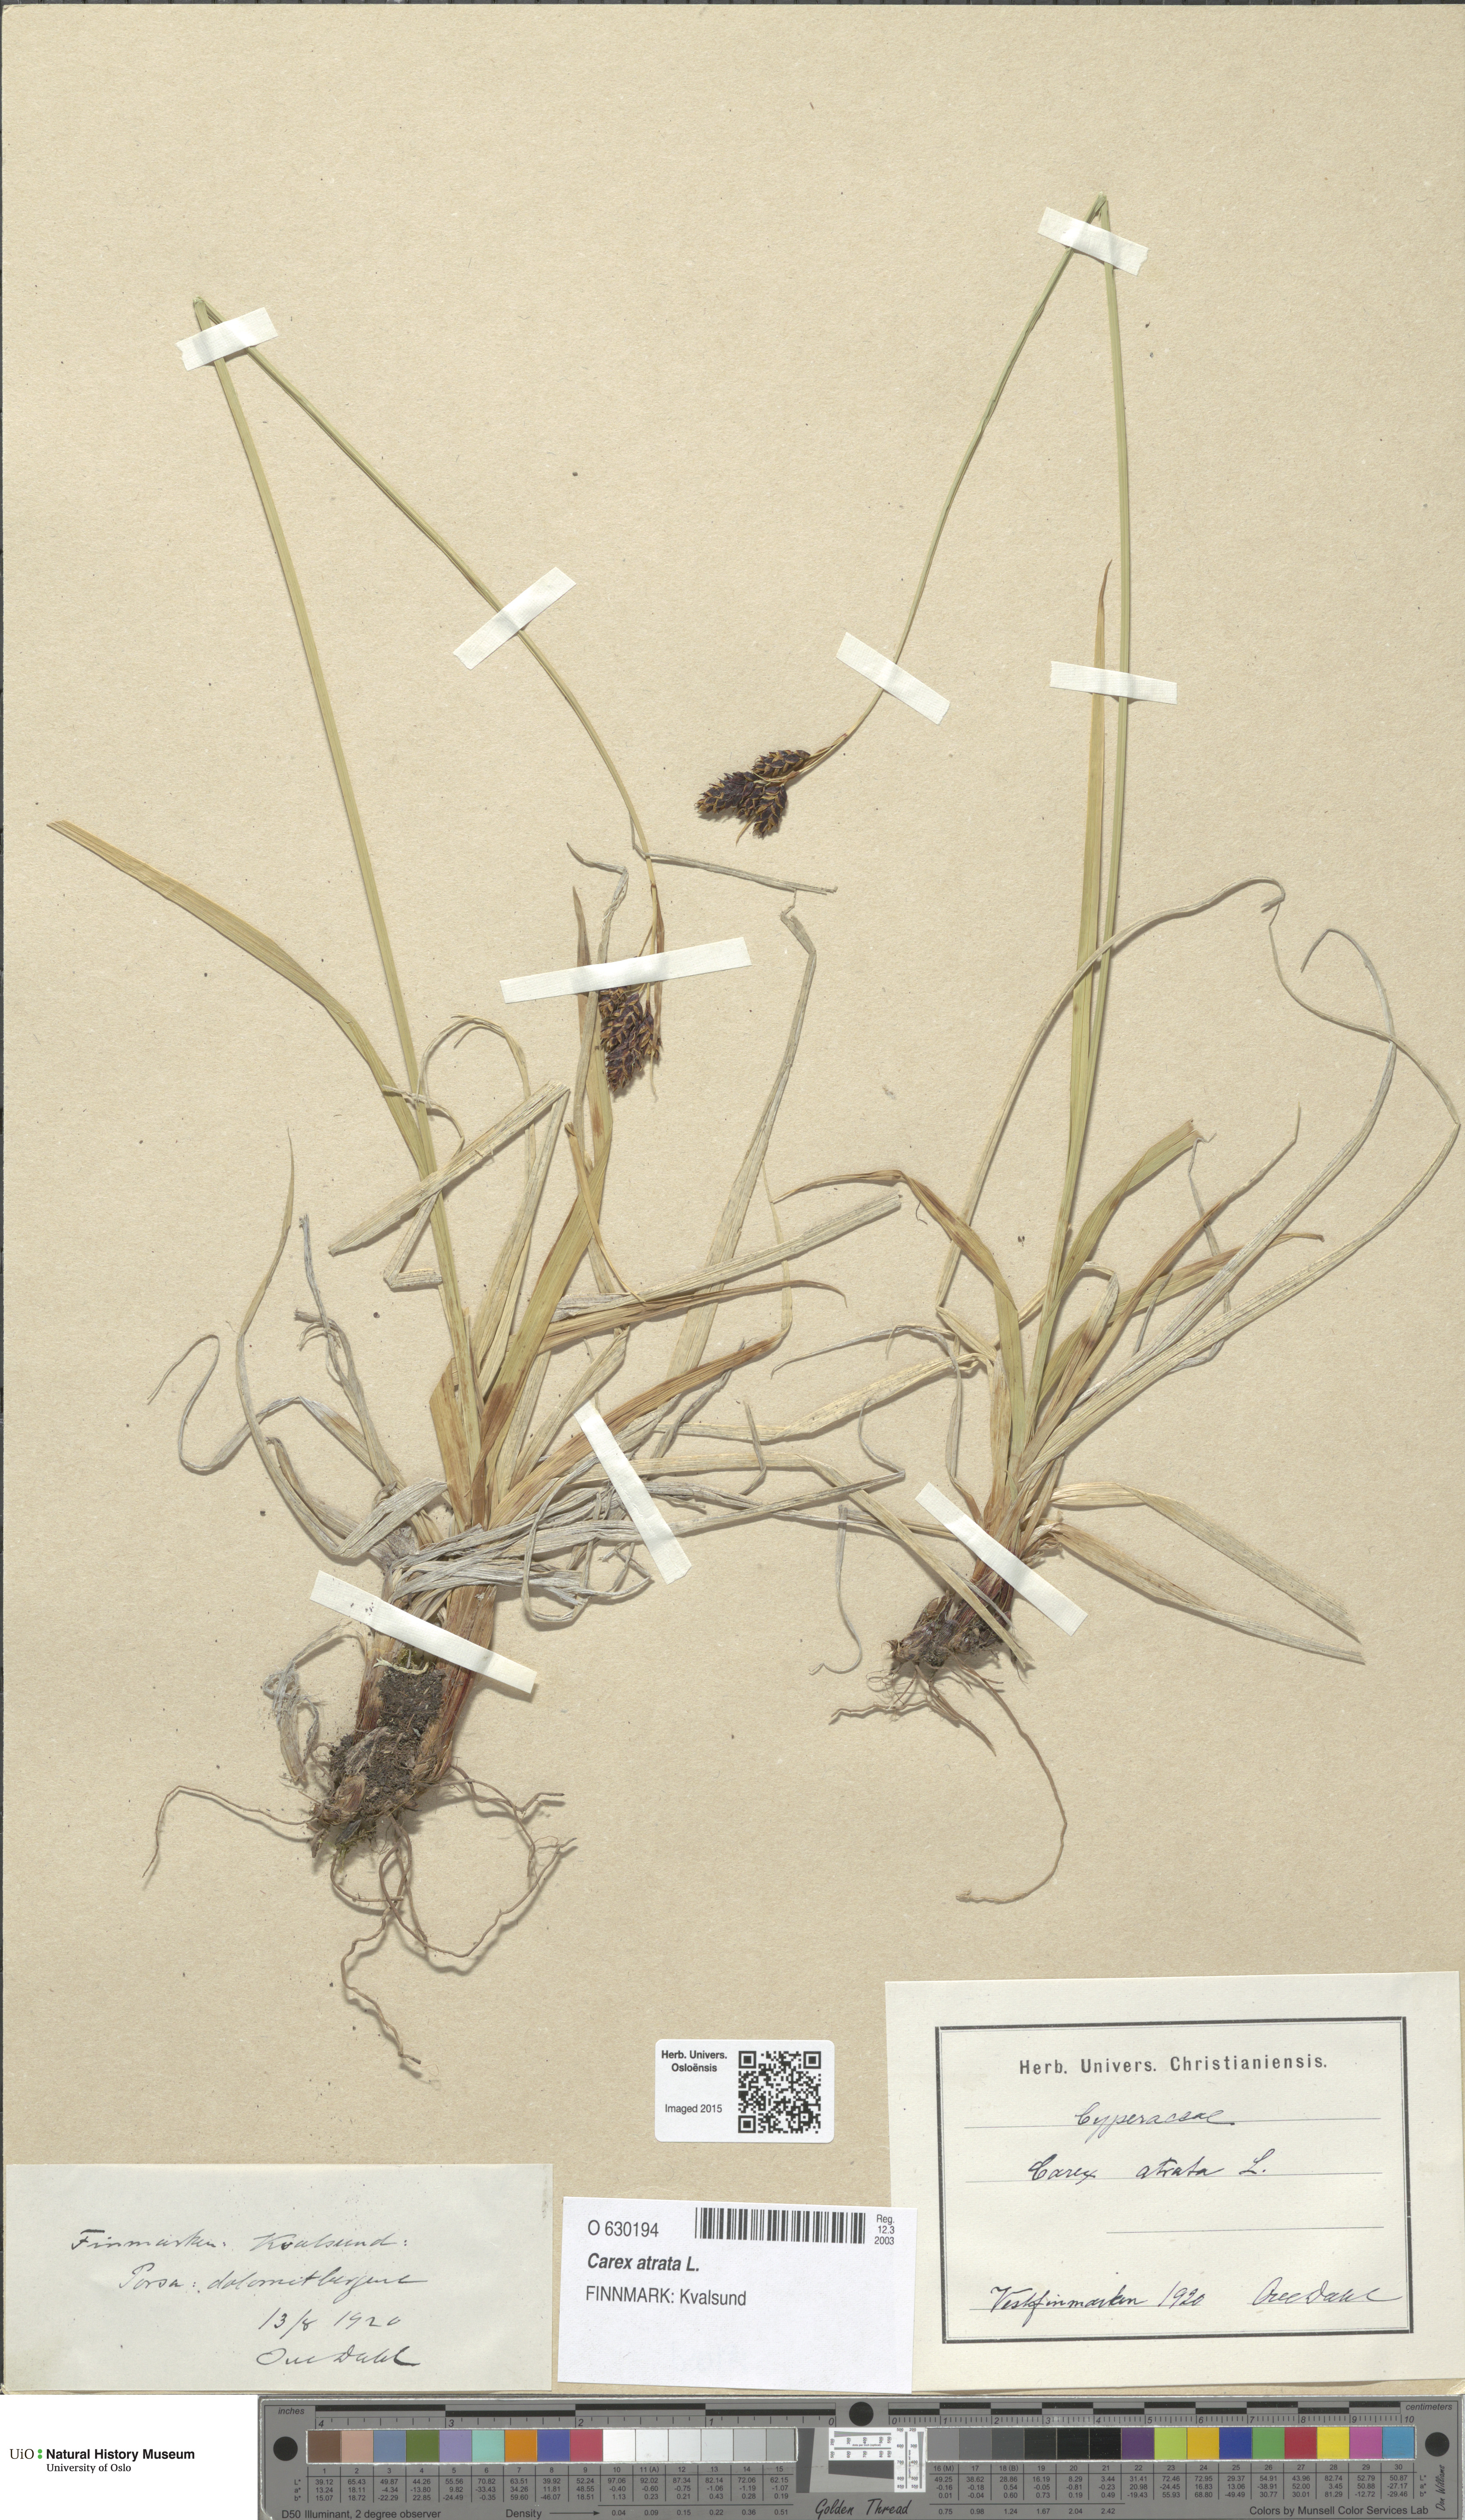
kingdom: Plantae
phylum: Tracheophyta
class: Liliopsida
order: Poales
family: Cyperaceae
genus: Carex
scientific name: Carex atrata
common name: Black alpine sedge
